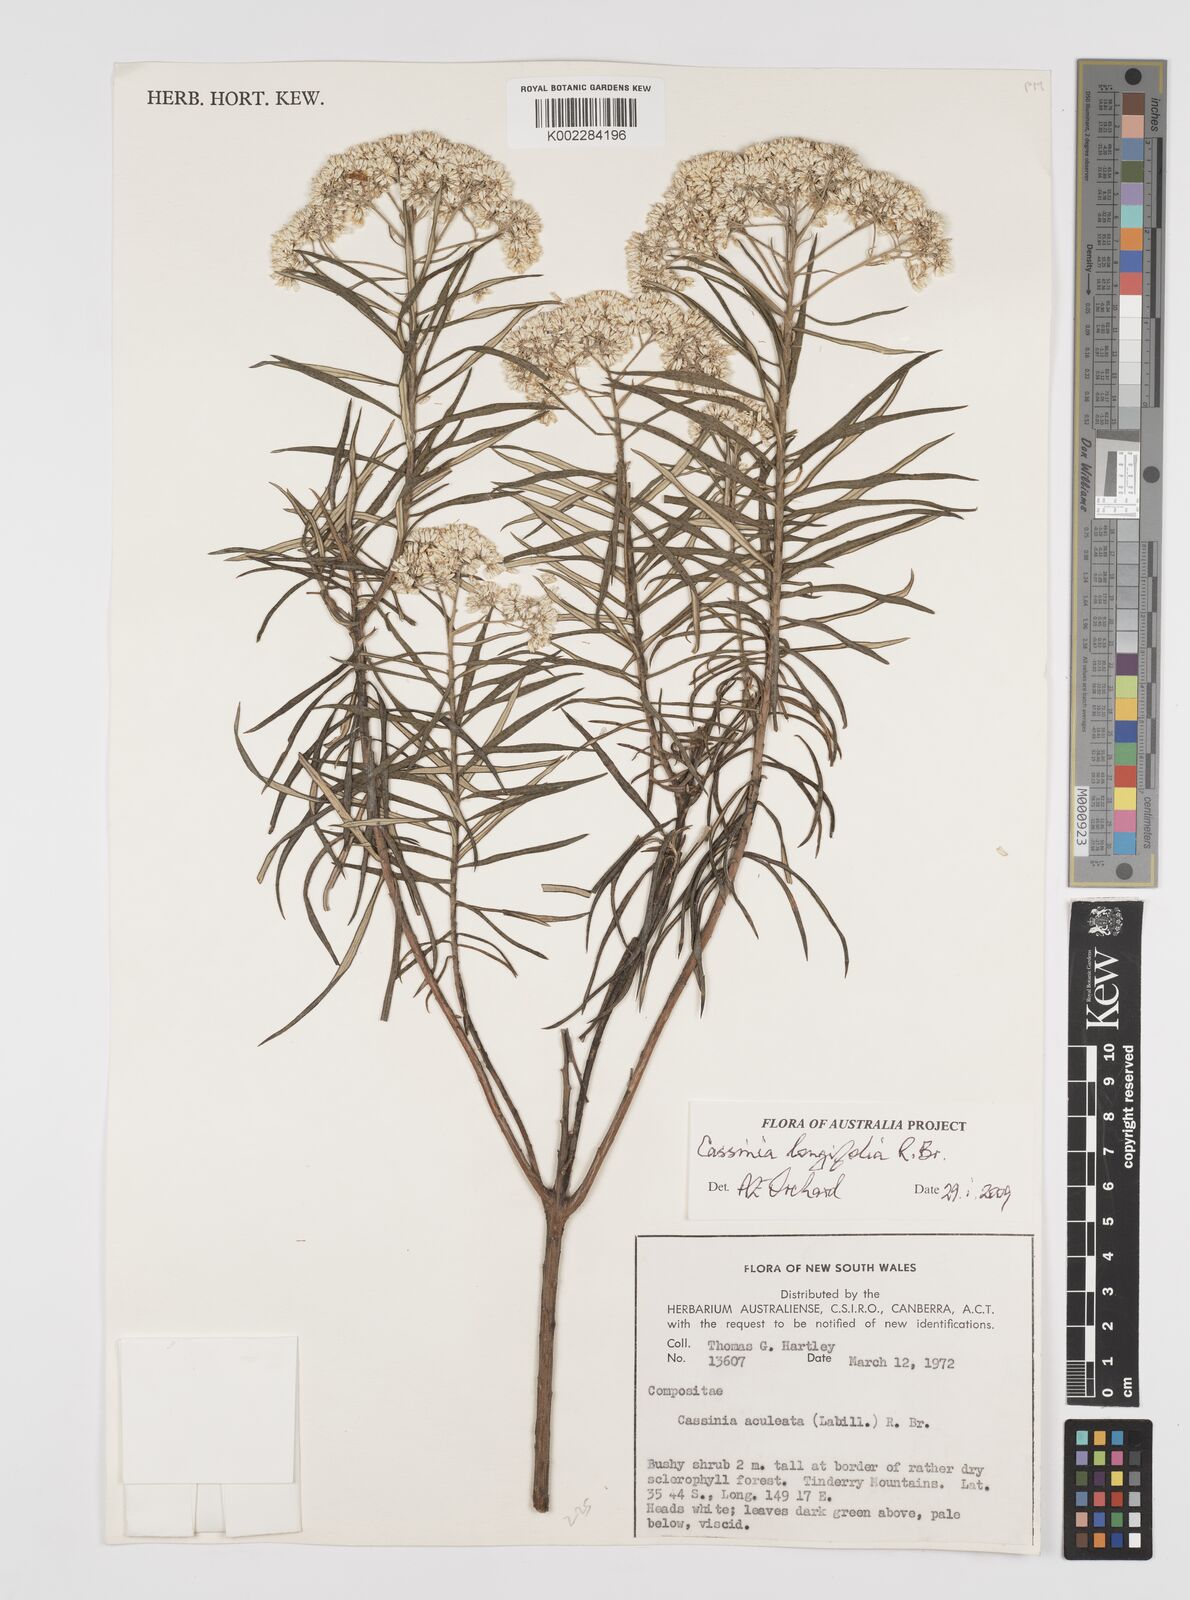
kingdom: Plantae
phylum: Tracheophyta
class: Magnoliopsida
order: Asterales
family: Asteraceae
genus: Cassinia
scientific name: Cassinia longifolia
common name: Longleaf-dogwood
